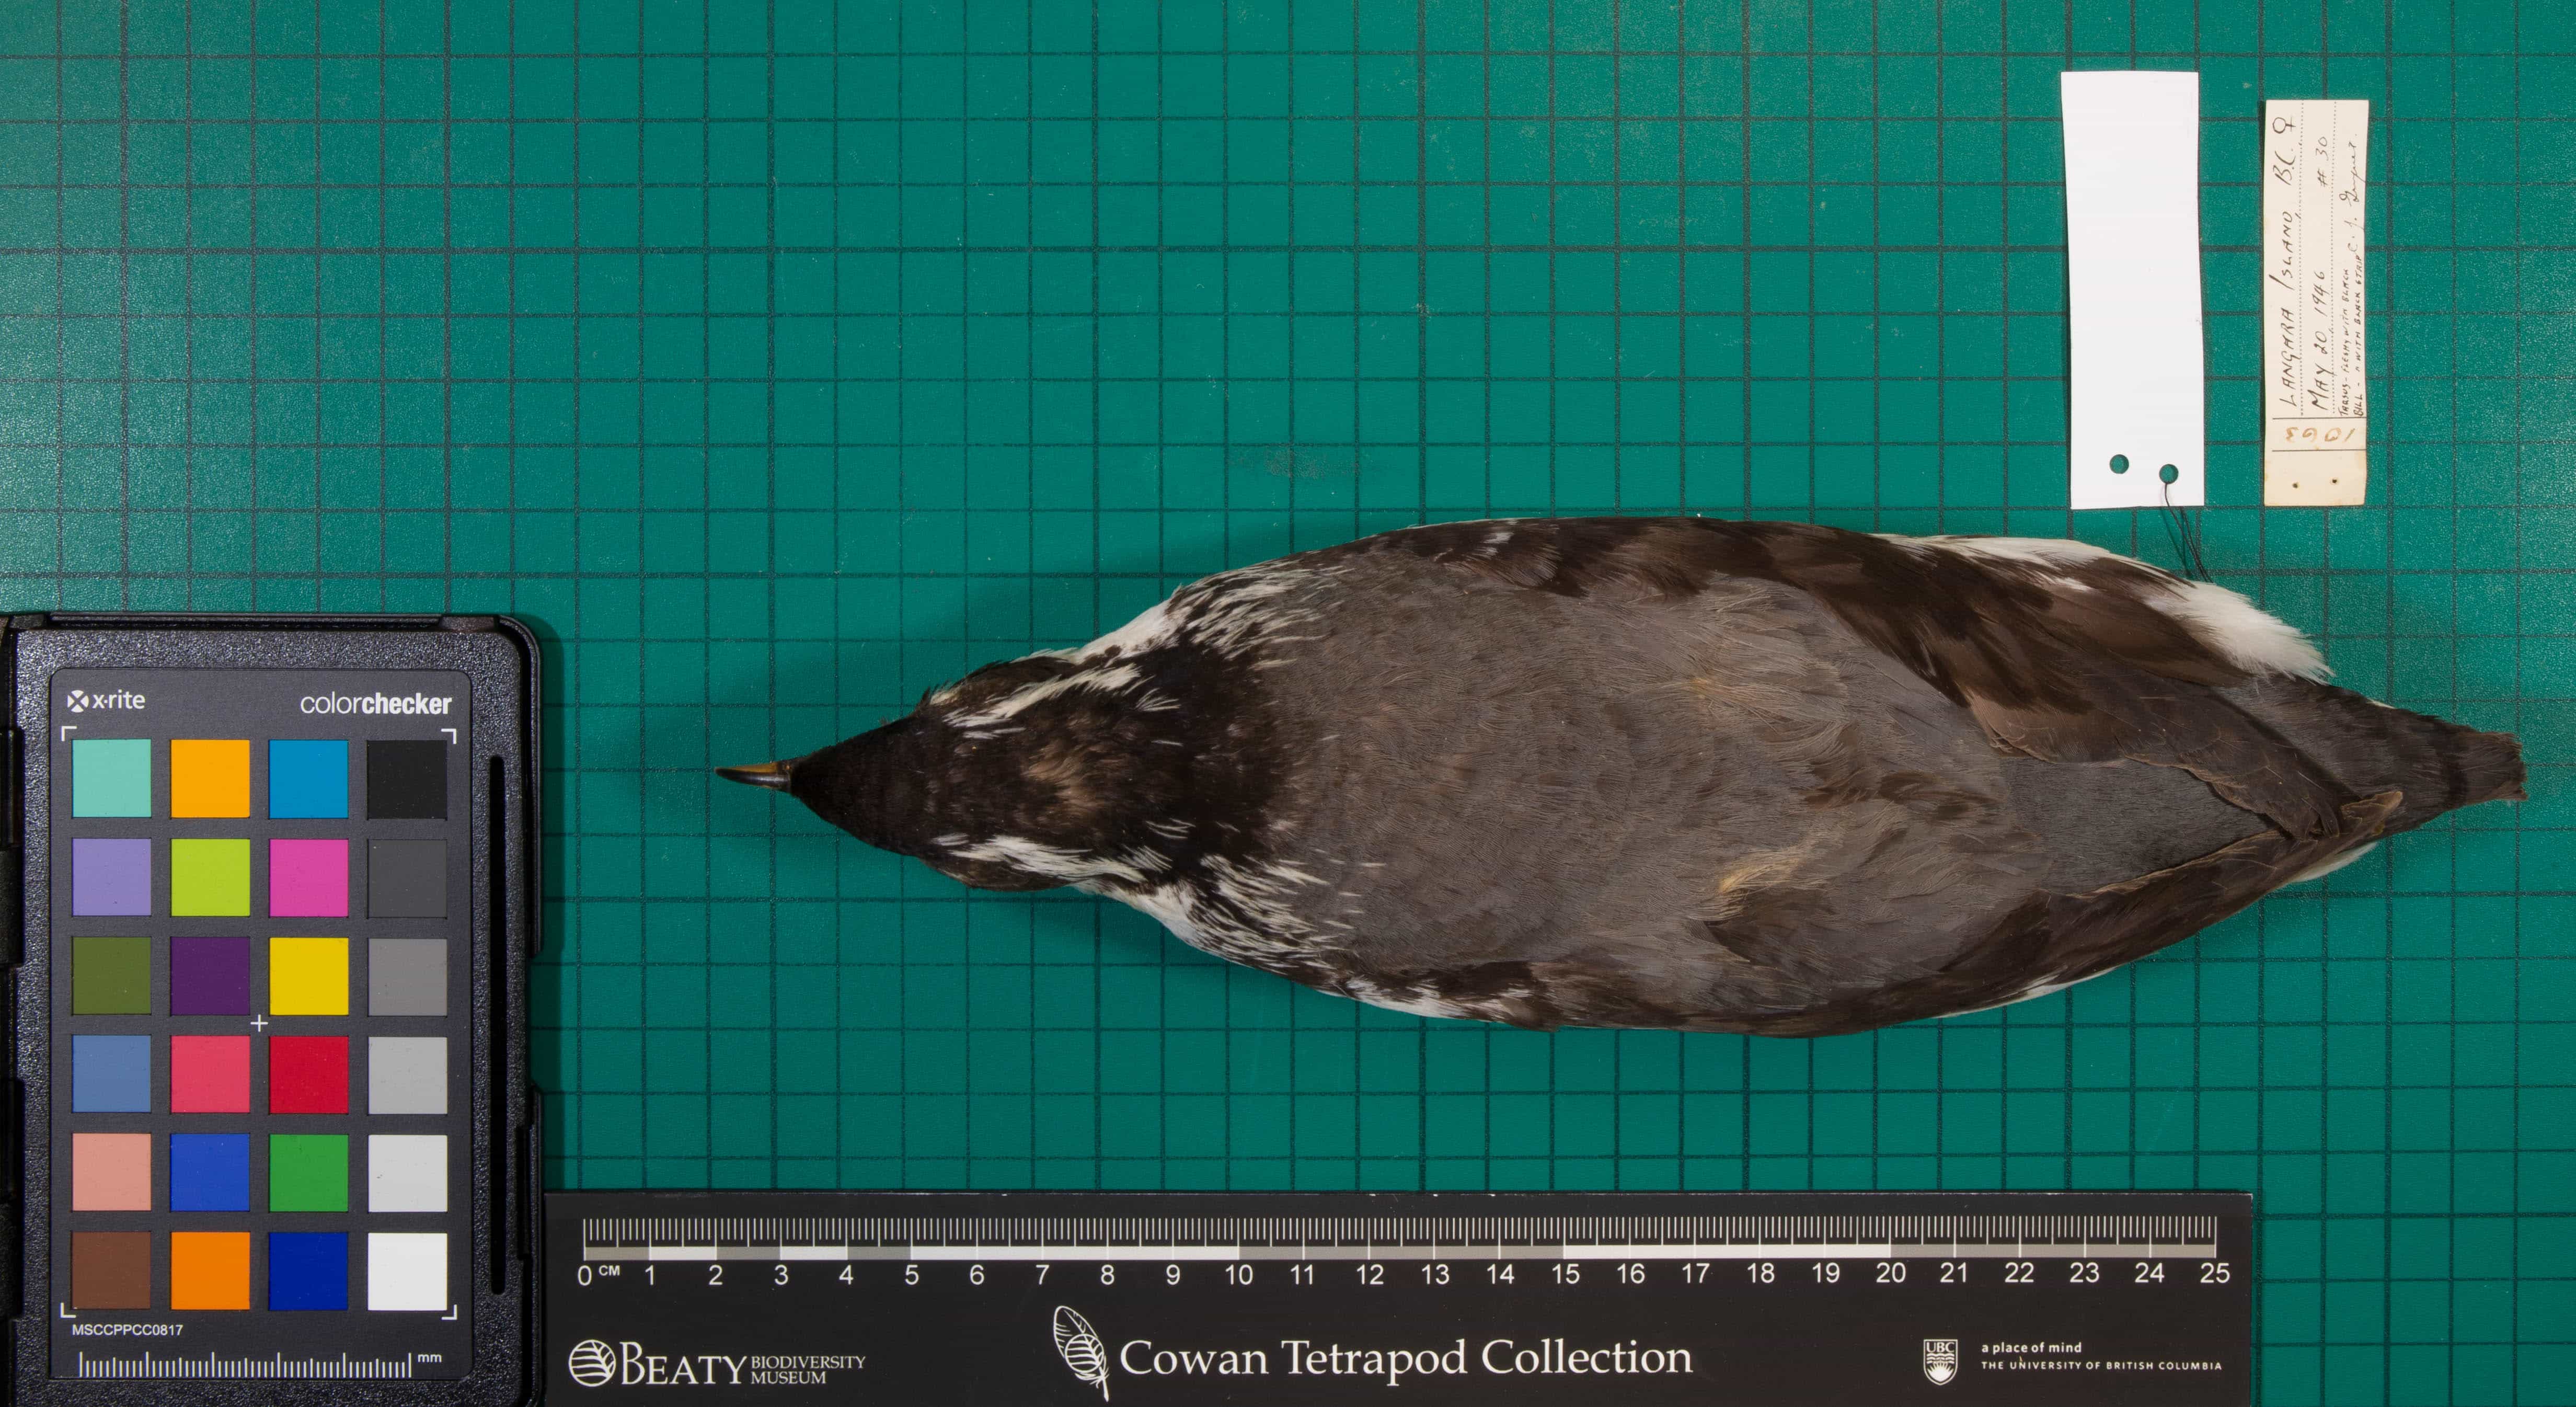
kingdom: Animalia
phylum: Chordata
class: Aves
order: Charadriiformes
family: Alcidae
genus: Synthliboramphus
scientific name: Synthliboramphus antiquus
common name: Ancient Murrelet
